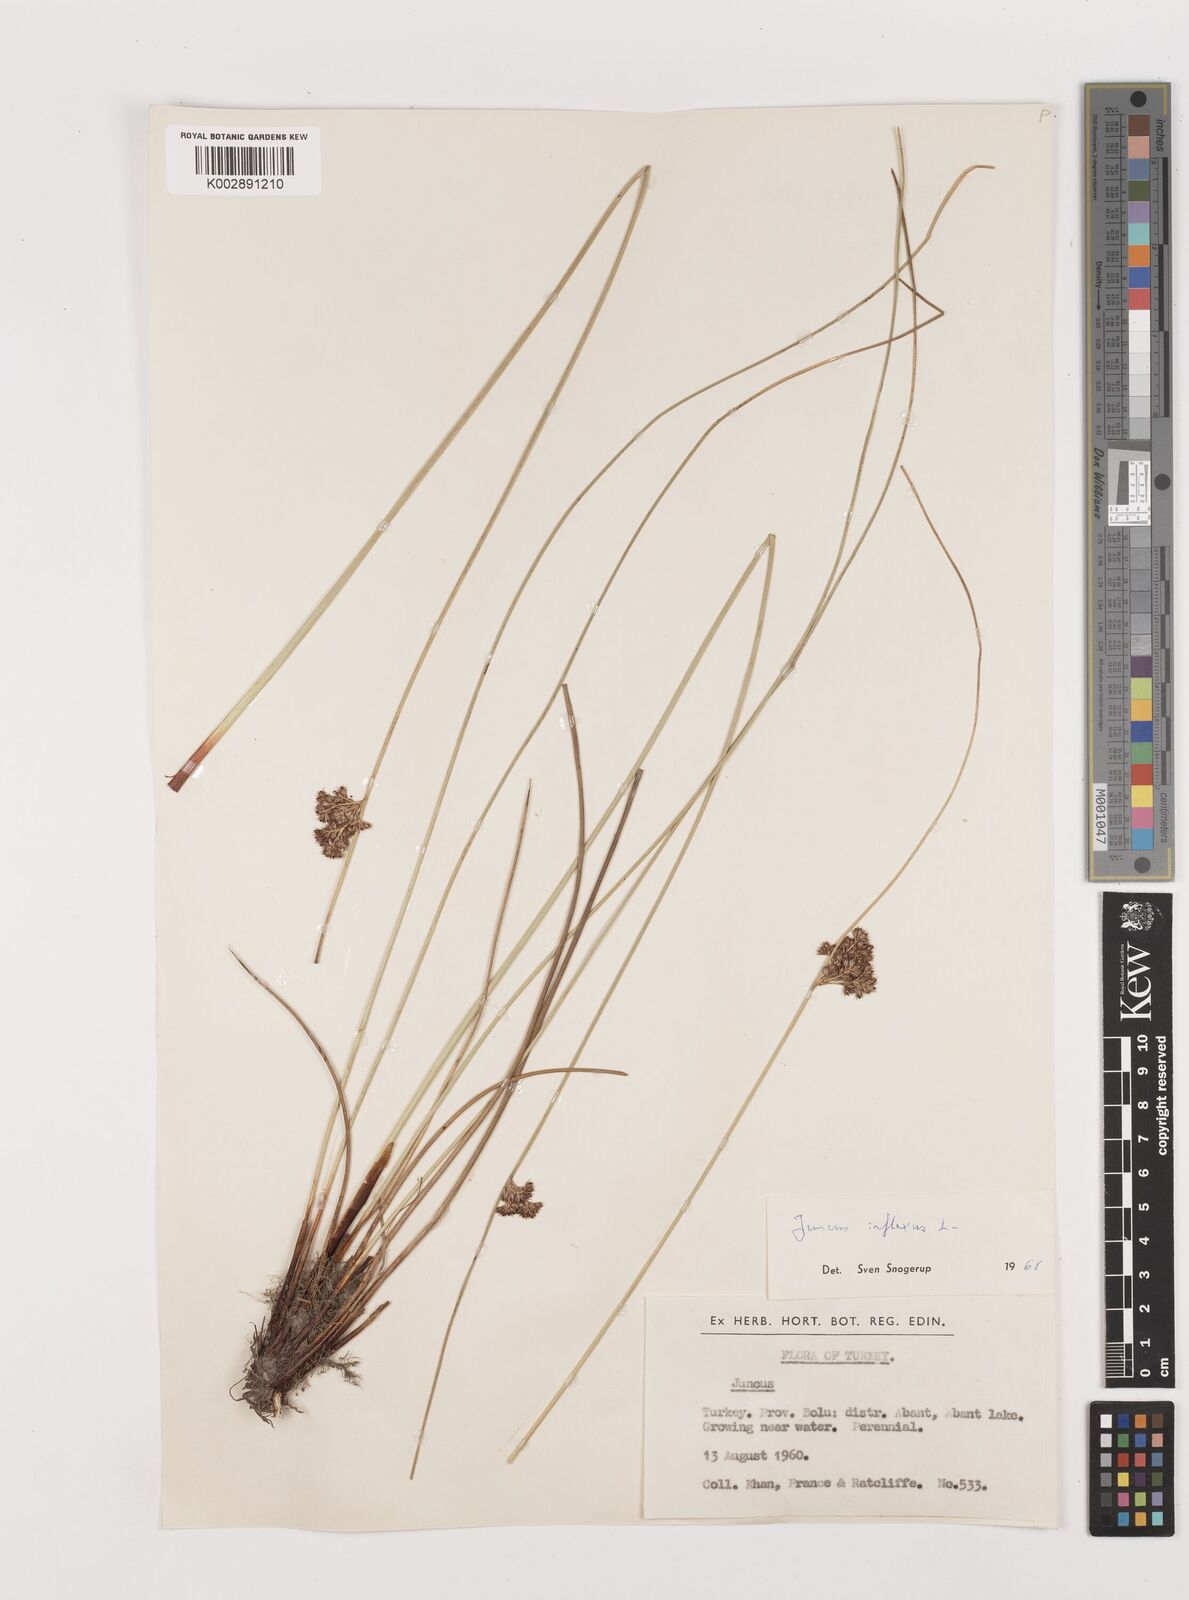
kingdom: Plantae
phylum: Tracheophyta
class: Liliopsida
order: Poales
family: Juncaceae
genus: Juncus
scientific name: Juncus inflexus
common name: Hard rush
